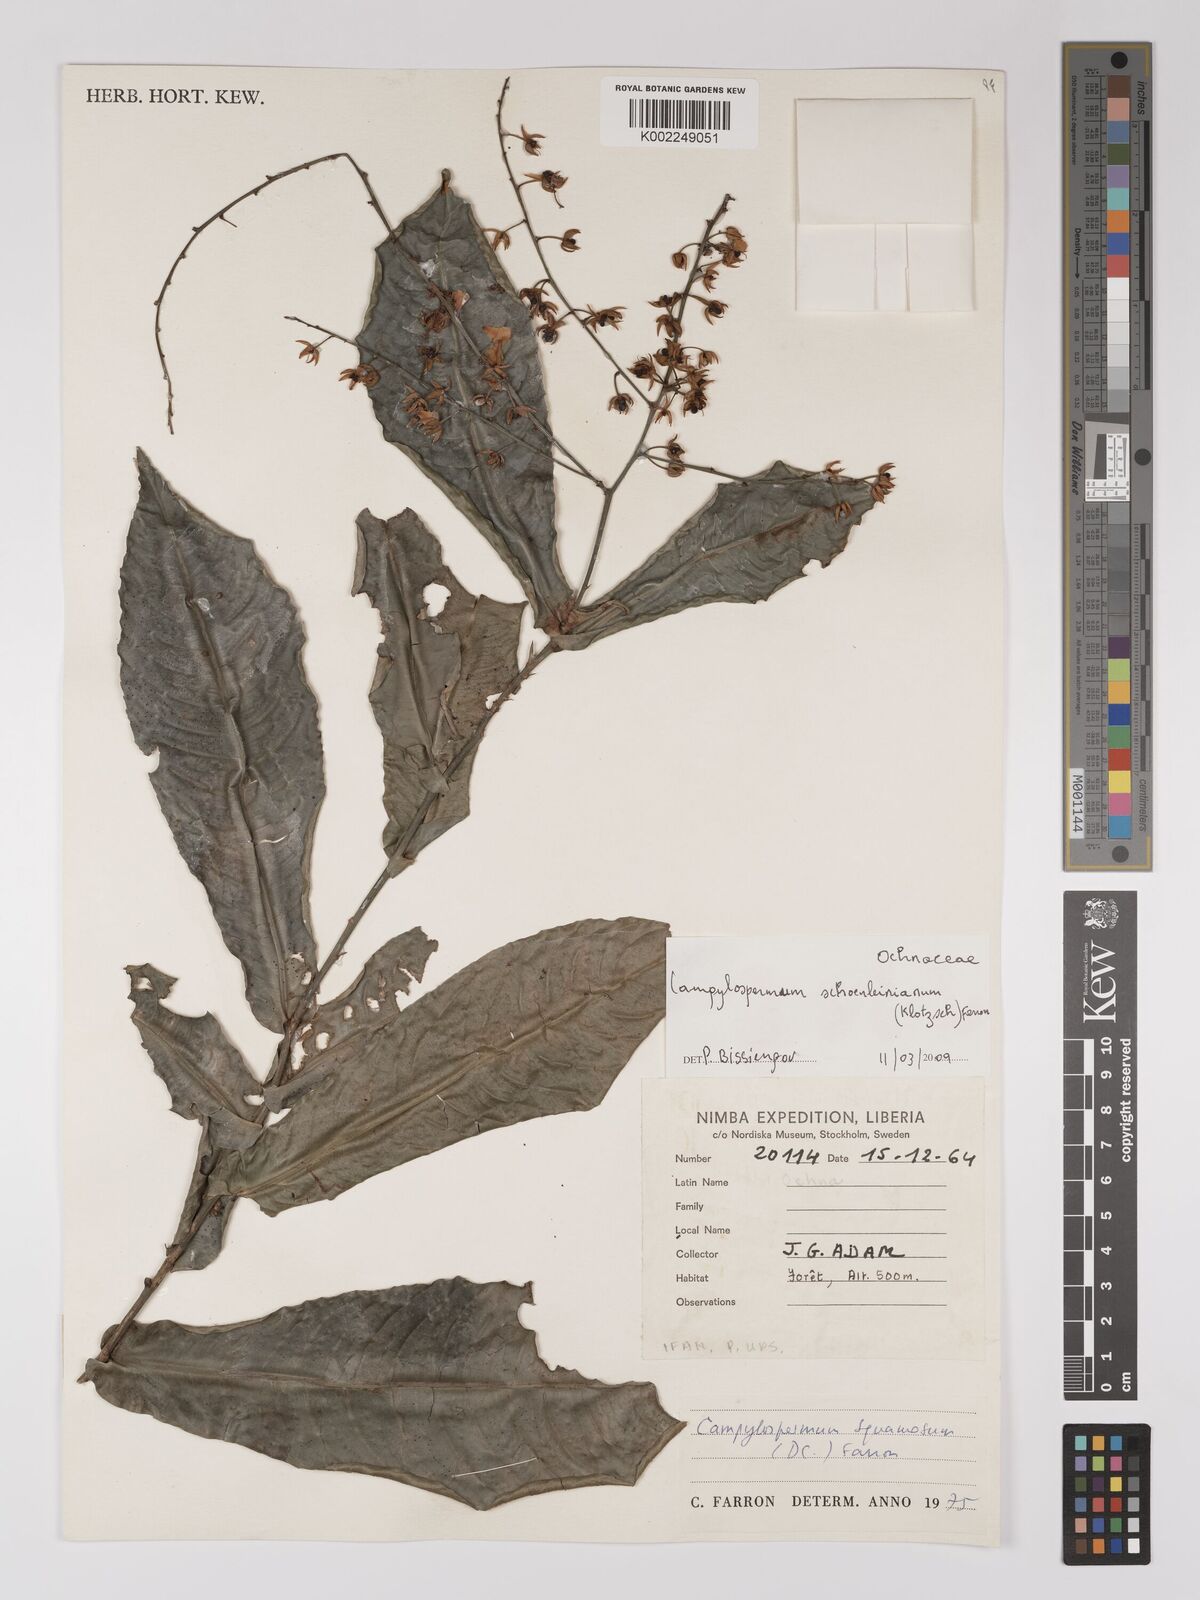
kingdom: Plantae
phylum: Tracheophyta
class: Magnoliopsida
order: Malpighiales
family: Ochnaceae
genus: Campylospermum
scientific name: Campylospermum schoenleinianum
